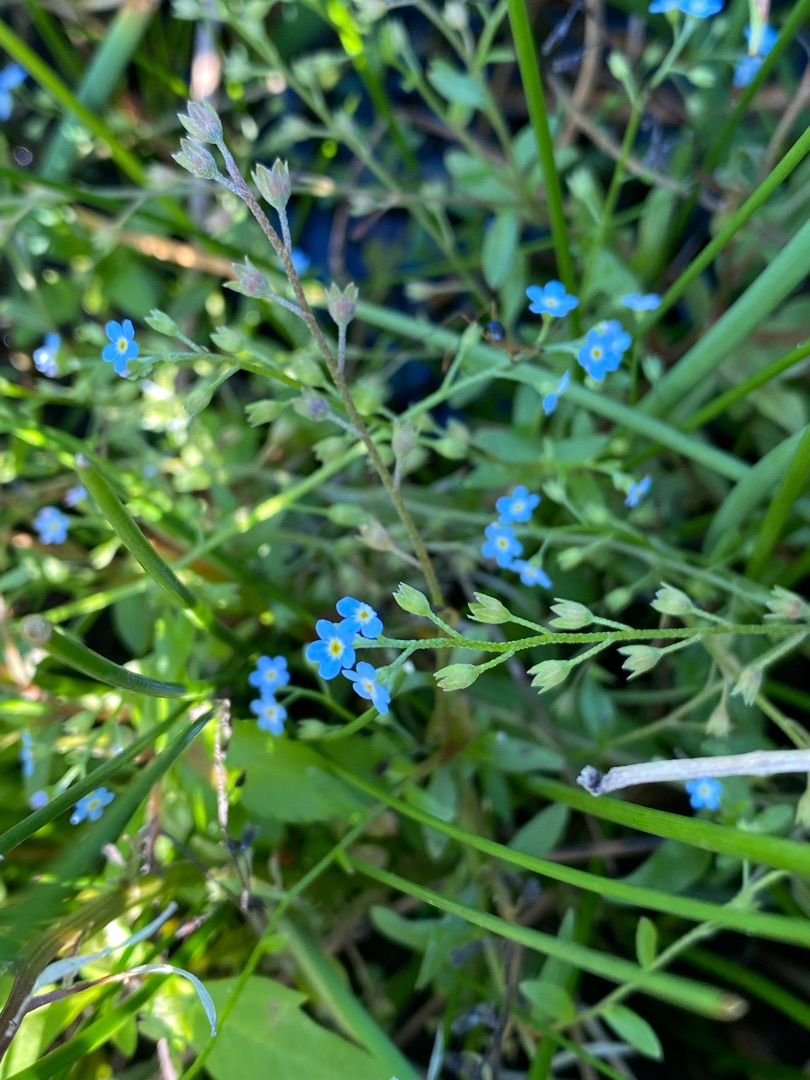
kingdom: Plantae
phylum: Tracheophyta
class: Magnoliopsida
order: Boraginales
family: Boraginaceae
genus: Myosotis
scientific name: Myosotis scorpioides
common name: Eng-forglemmigej
